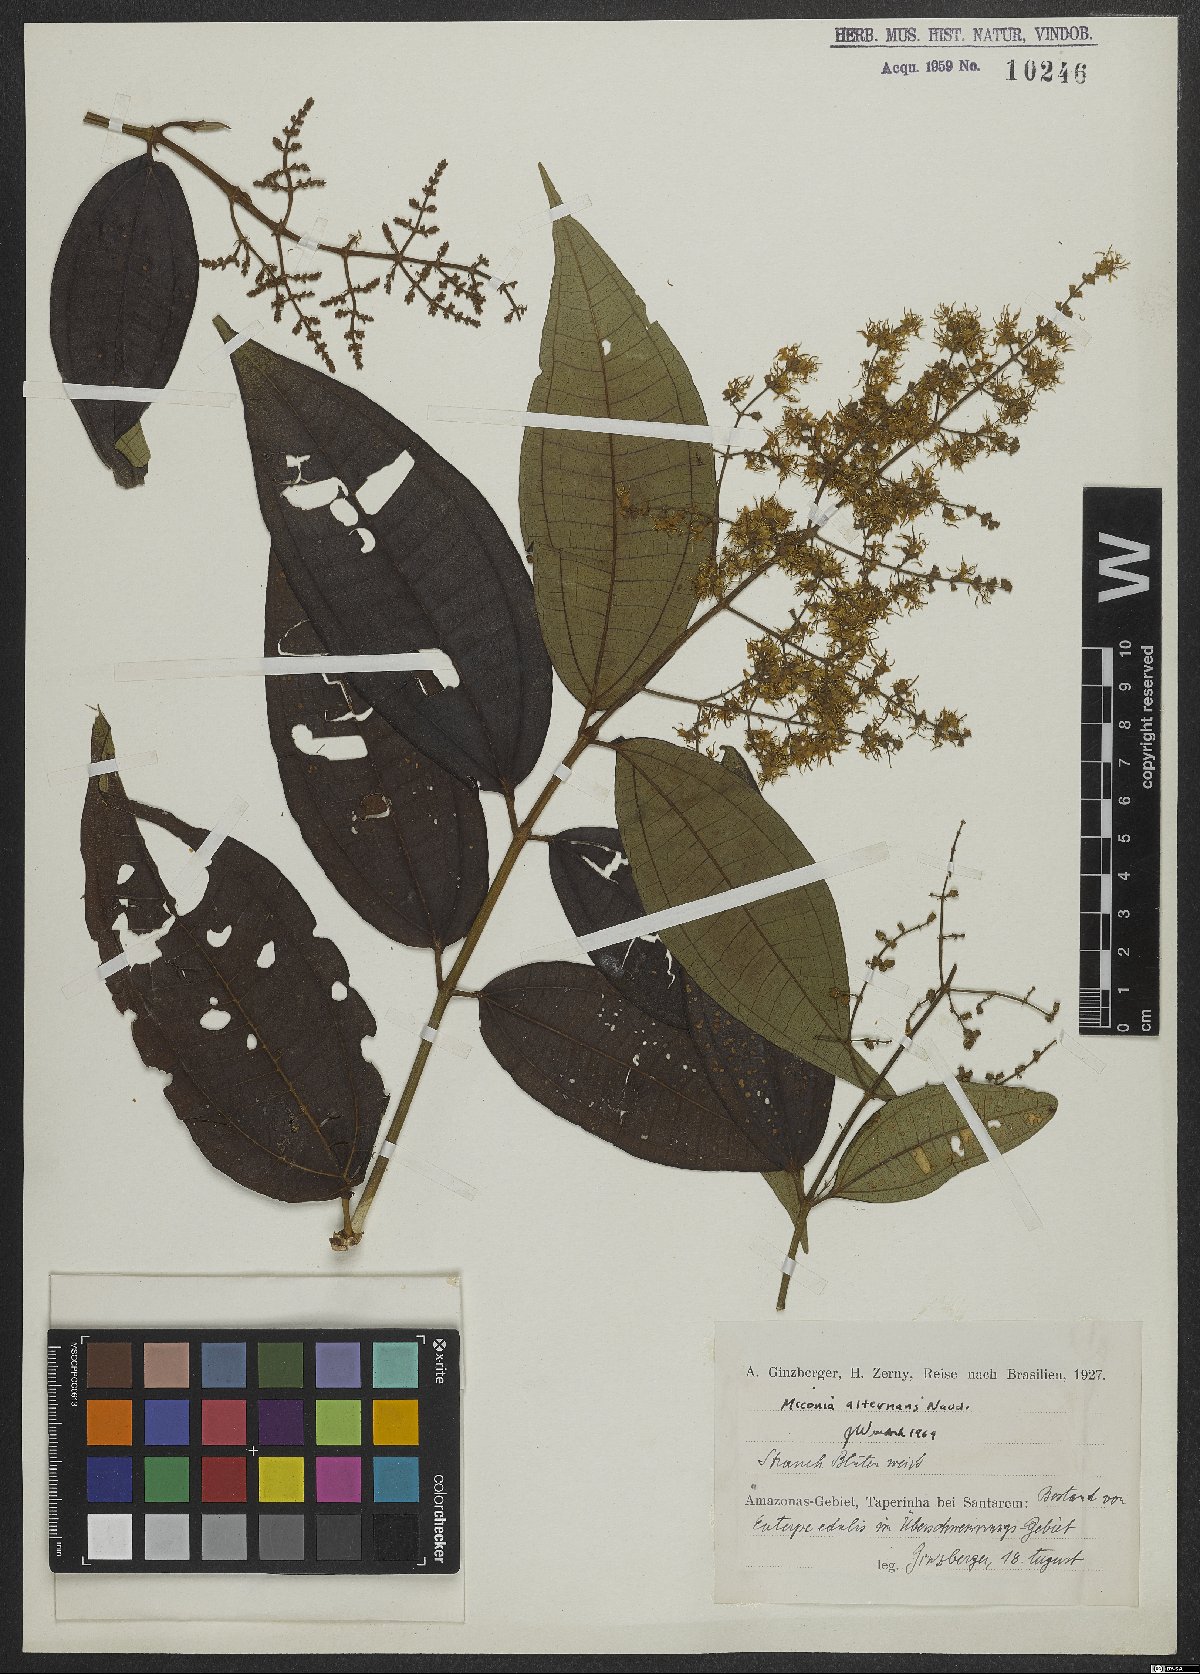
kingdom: Plantae
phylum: Tracheophyta
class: Magnoliopsida
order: Myrtales
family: Melastomataceae
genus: Miconia
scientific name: Miconia alternans
